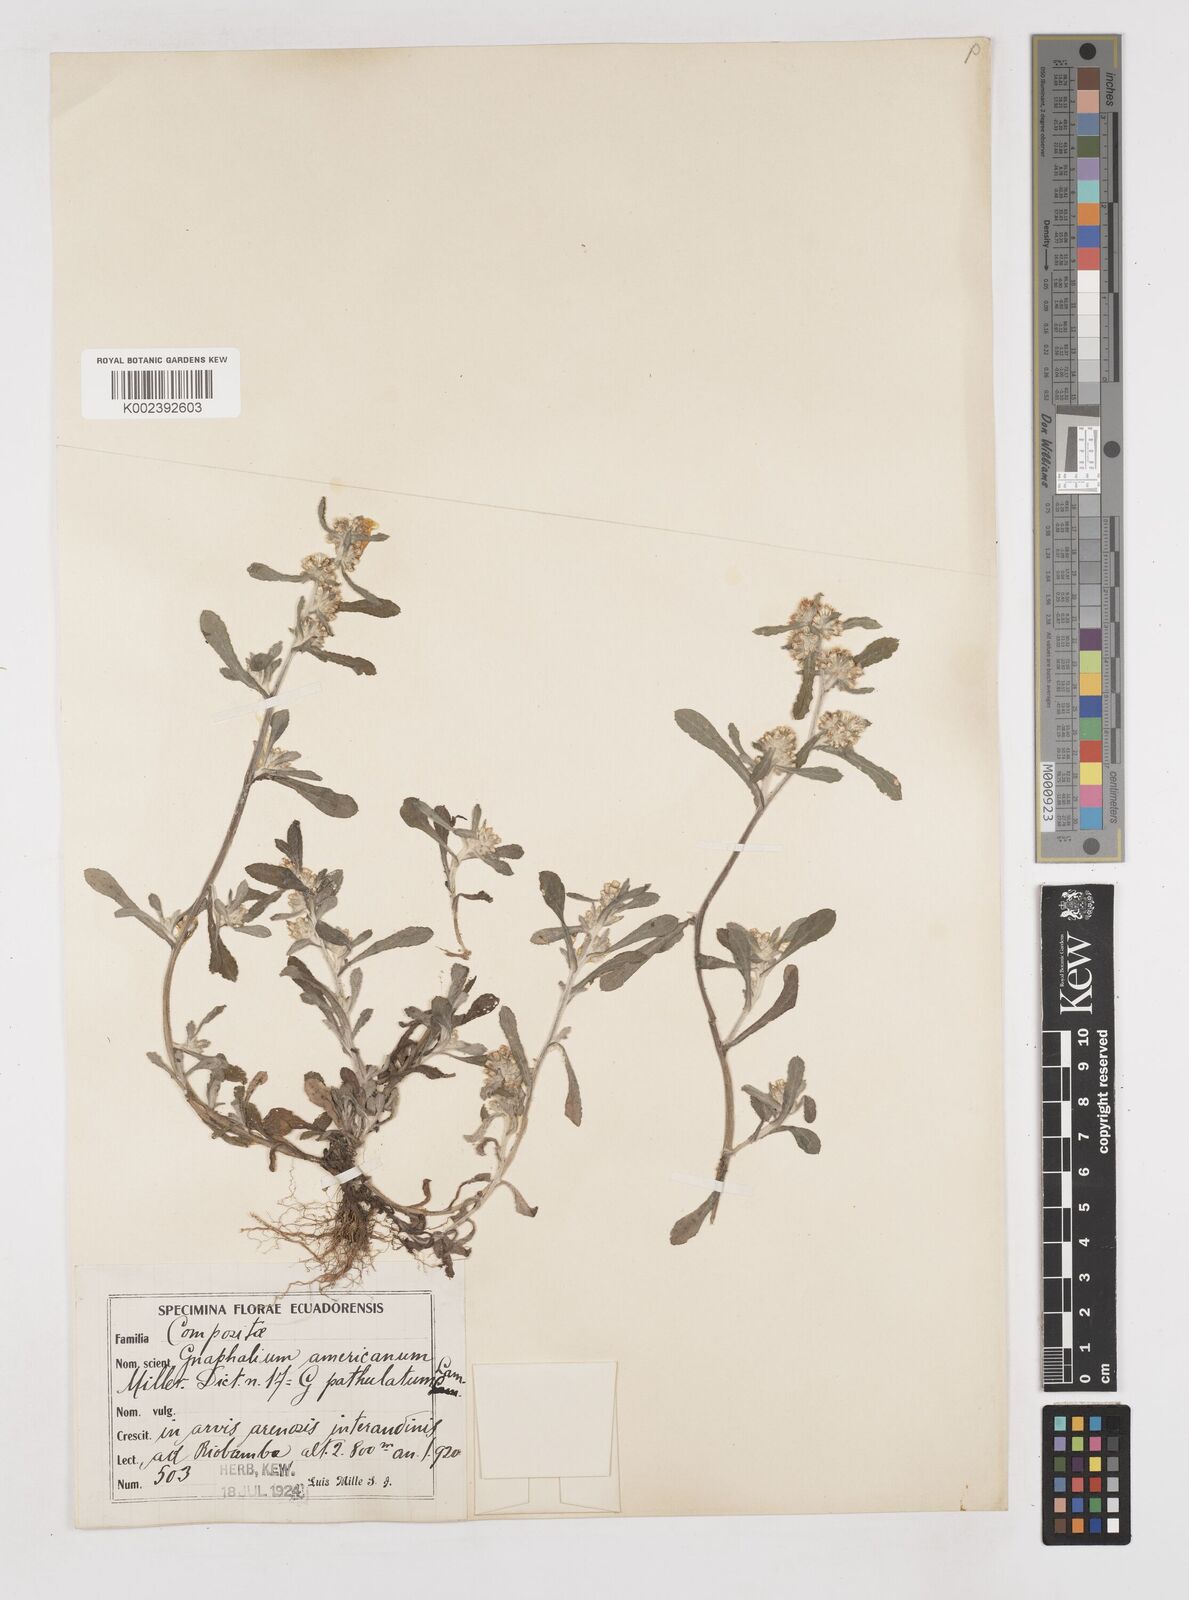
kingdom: Plantae
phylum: Tracheophyta
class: Magnoliopsida
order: Asterales
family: Asteraceae
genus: Gamochaeta
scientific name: Gamochaeta americana
